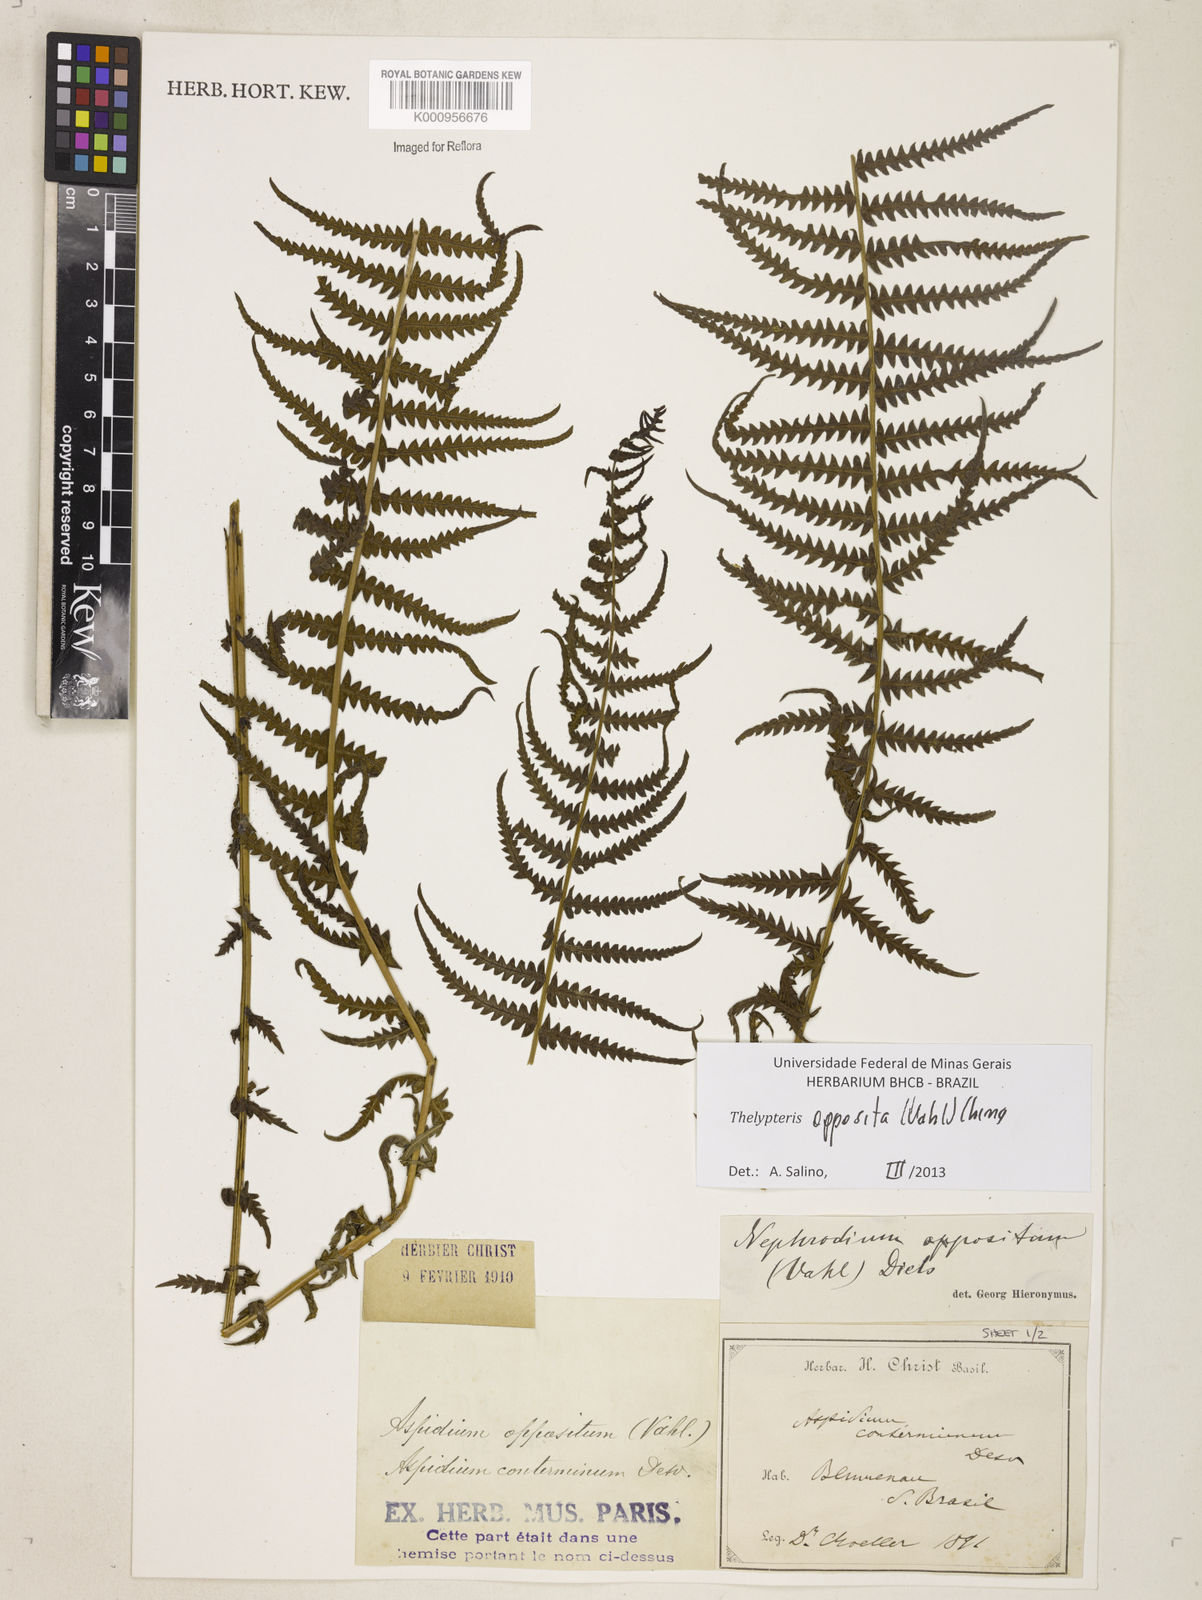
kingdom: Plantae
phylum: Tracheophyta
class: Polypodiopsida
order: Polypodiales
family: Thelypteridaceae
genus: Amauropelta
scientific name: Amauropelta opposita
